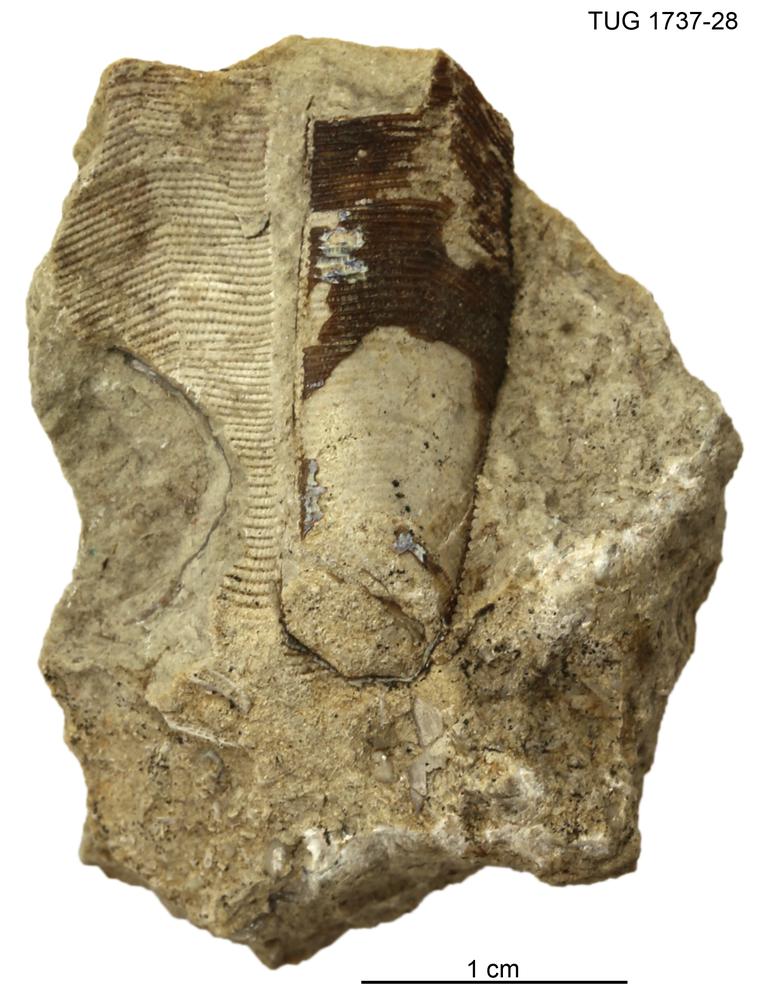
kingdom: Animalia
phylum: Cnidaria
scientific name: Cnidaria
